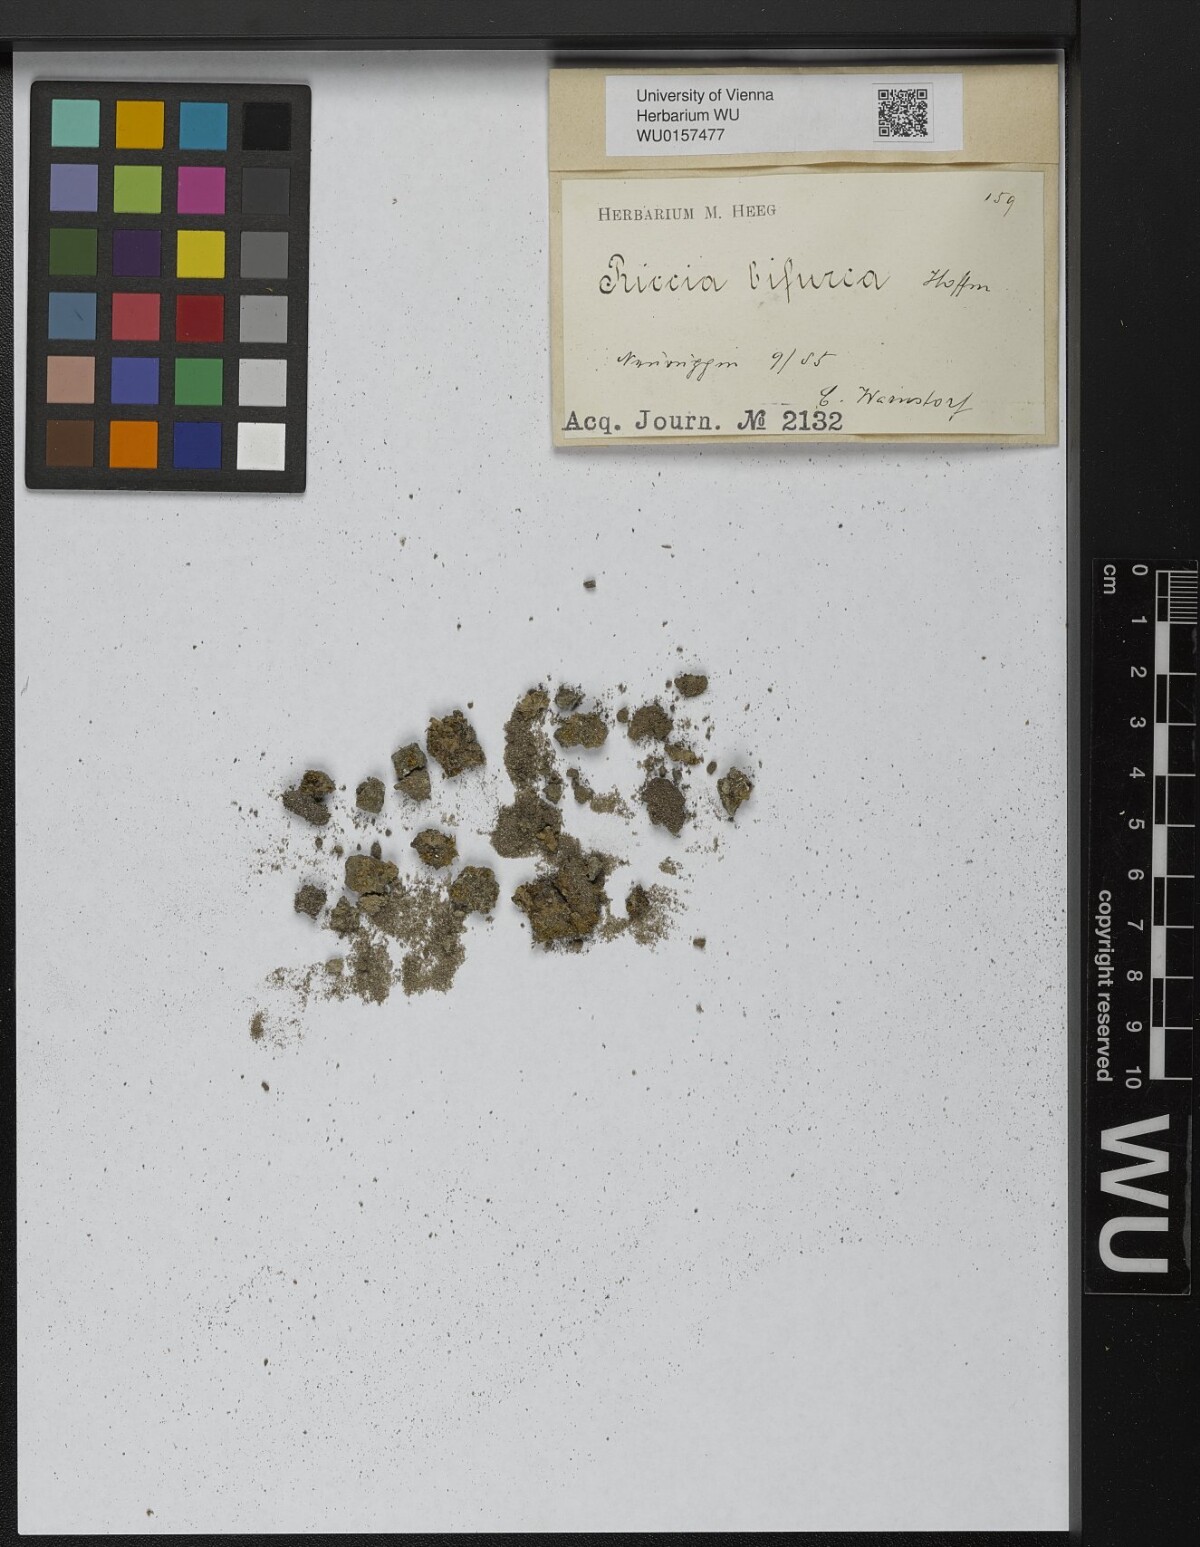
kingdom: Plantae
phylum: Marchantiophyta
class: Marchantiopsida
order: Marchantiales
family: Ricciaceae
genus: Riccia
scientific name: Riccia bifurca
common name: Lizard crystalwort
